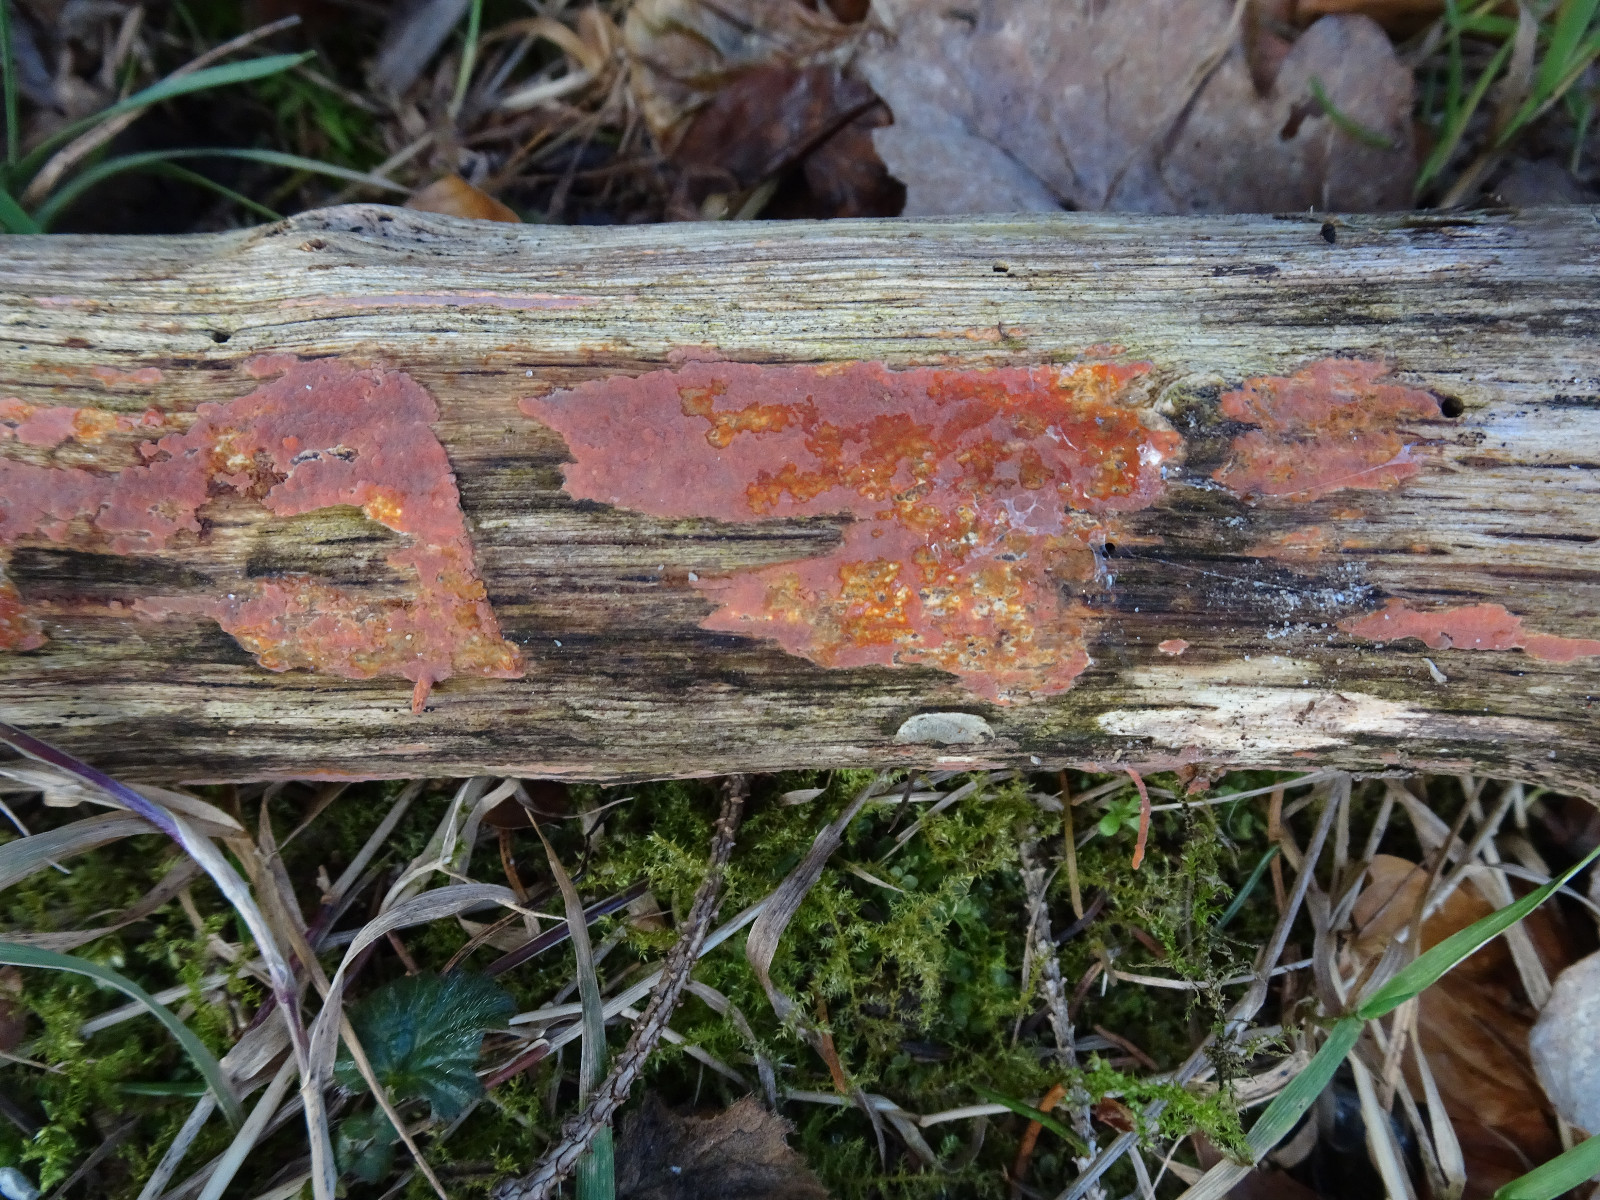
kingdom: Fungi
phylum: Basidiomycota
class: Agaricomycetes
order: Russulales
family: Peniophoraceae
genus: Peniophora
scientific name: Peniophora
